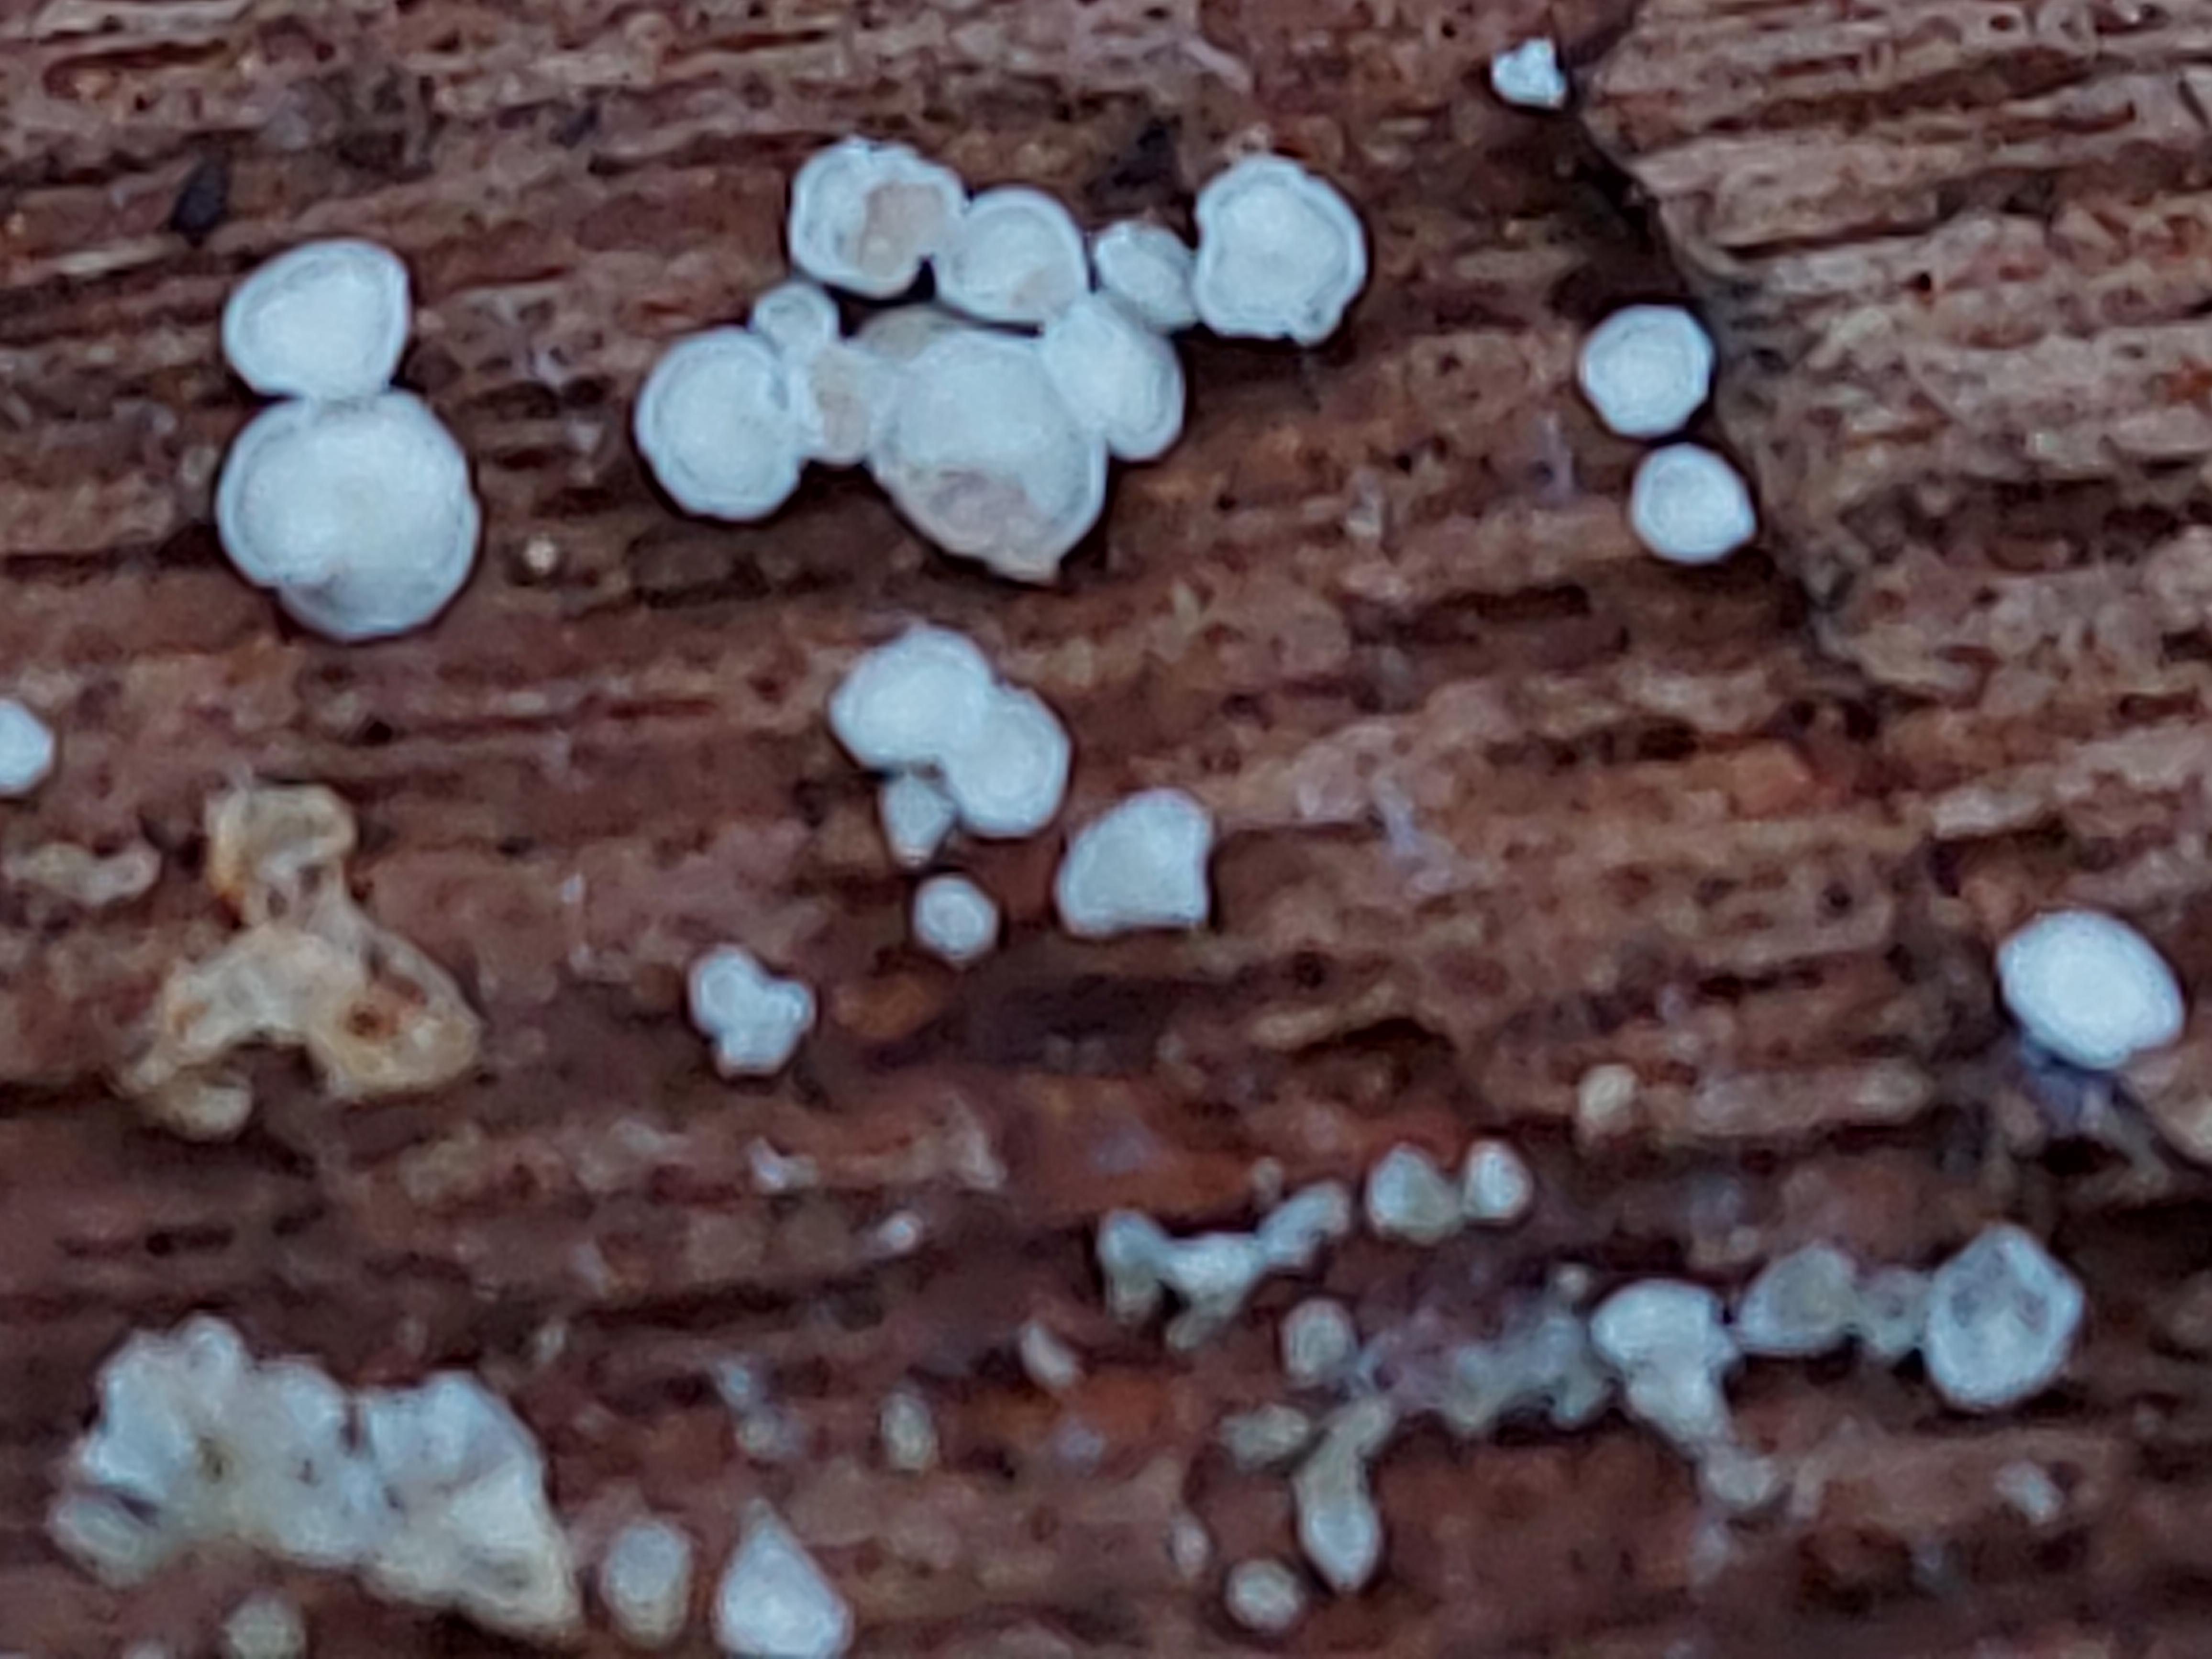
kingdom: Fungi
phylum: Ascomycota
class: Leotiomycetes
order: Helotiales
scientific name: Helotiales
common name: stilkskiveordenen
